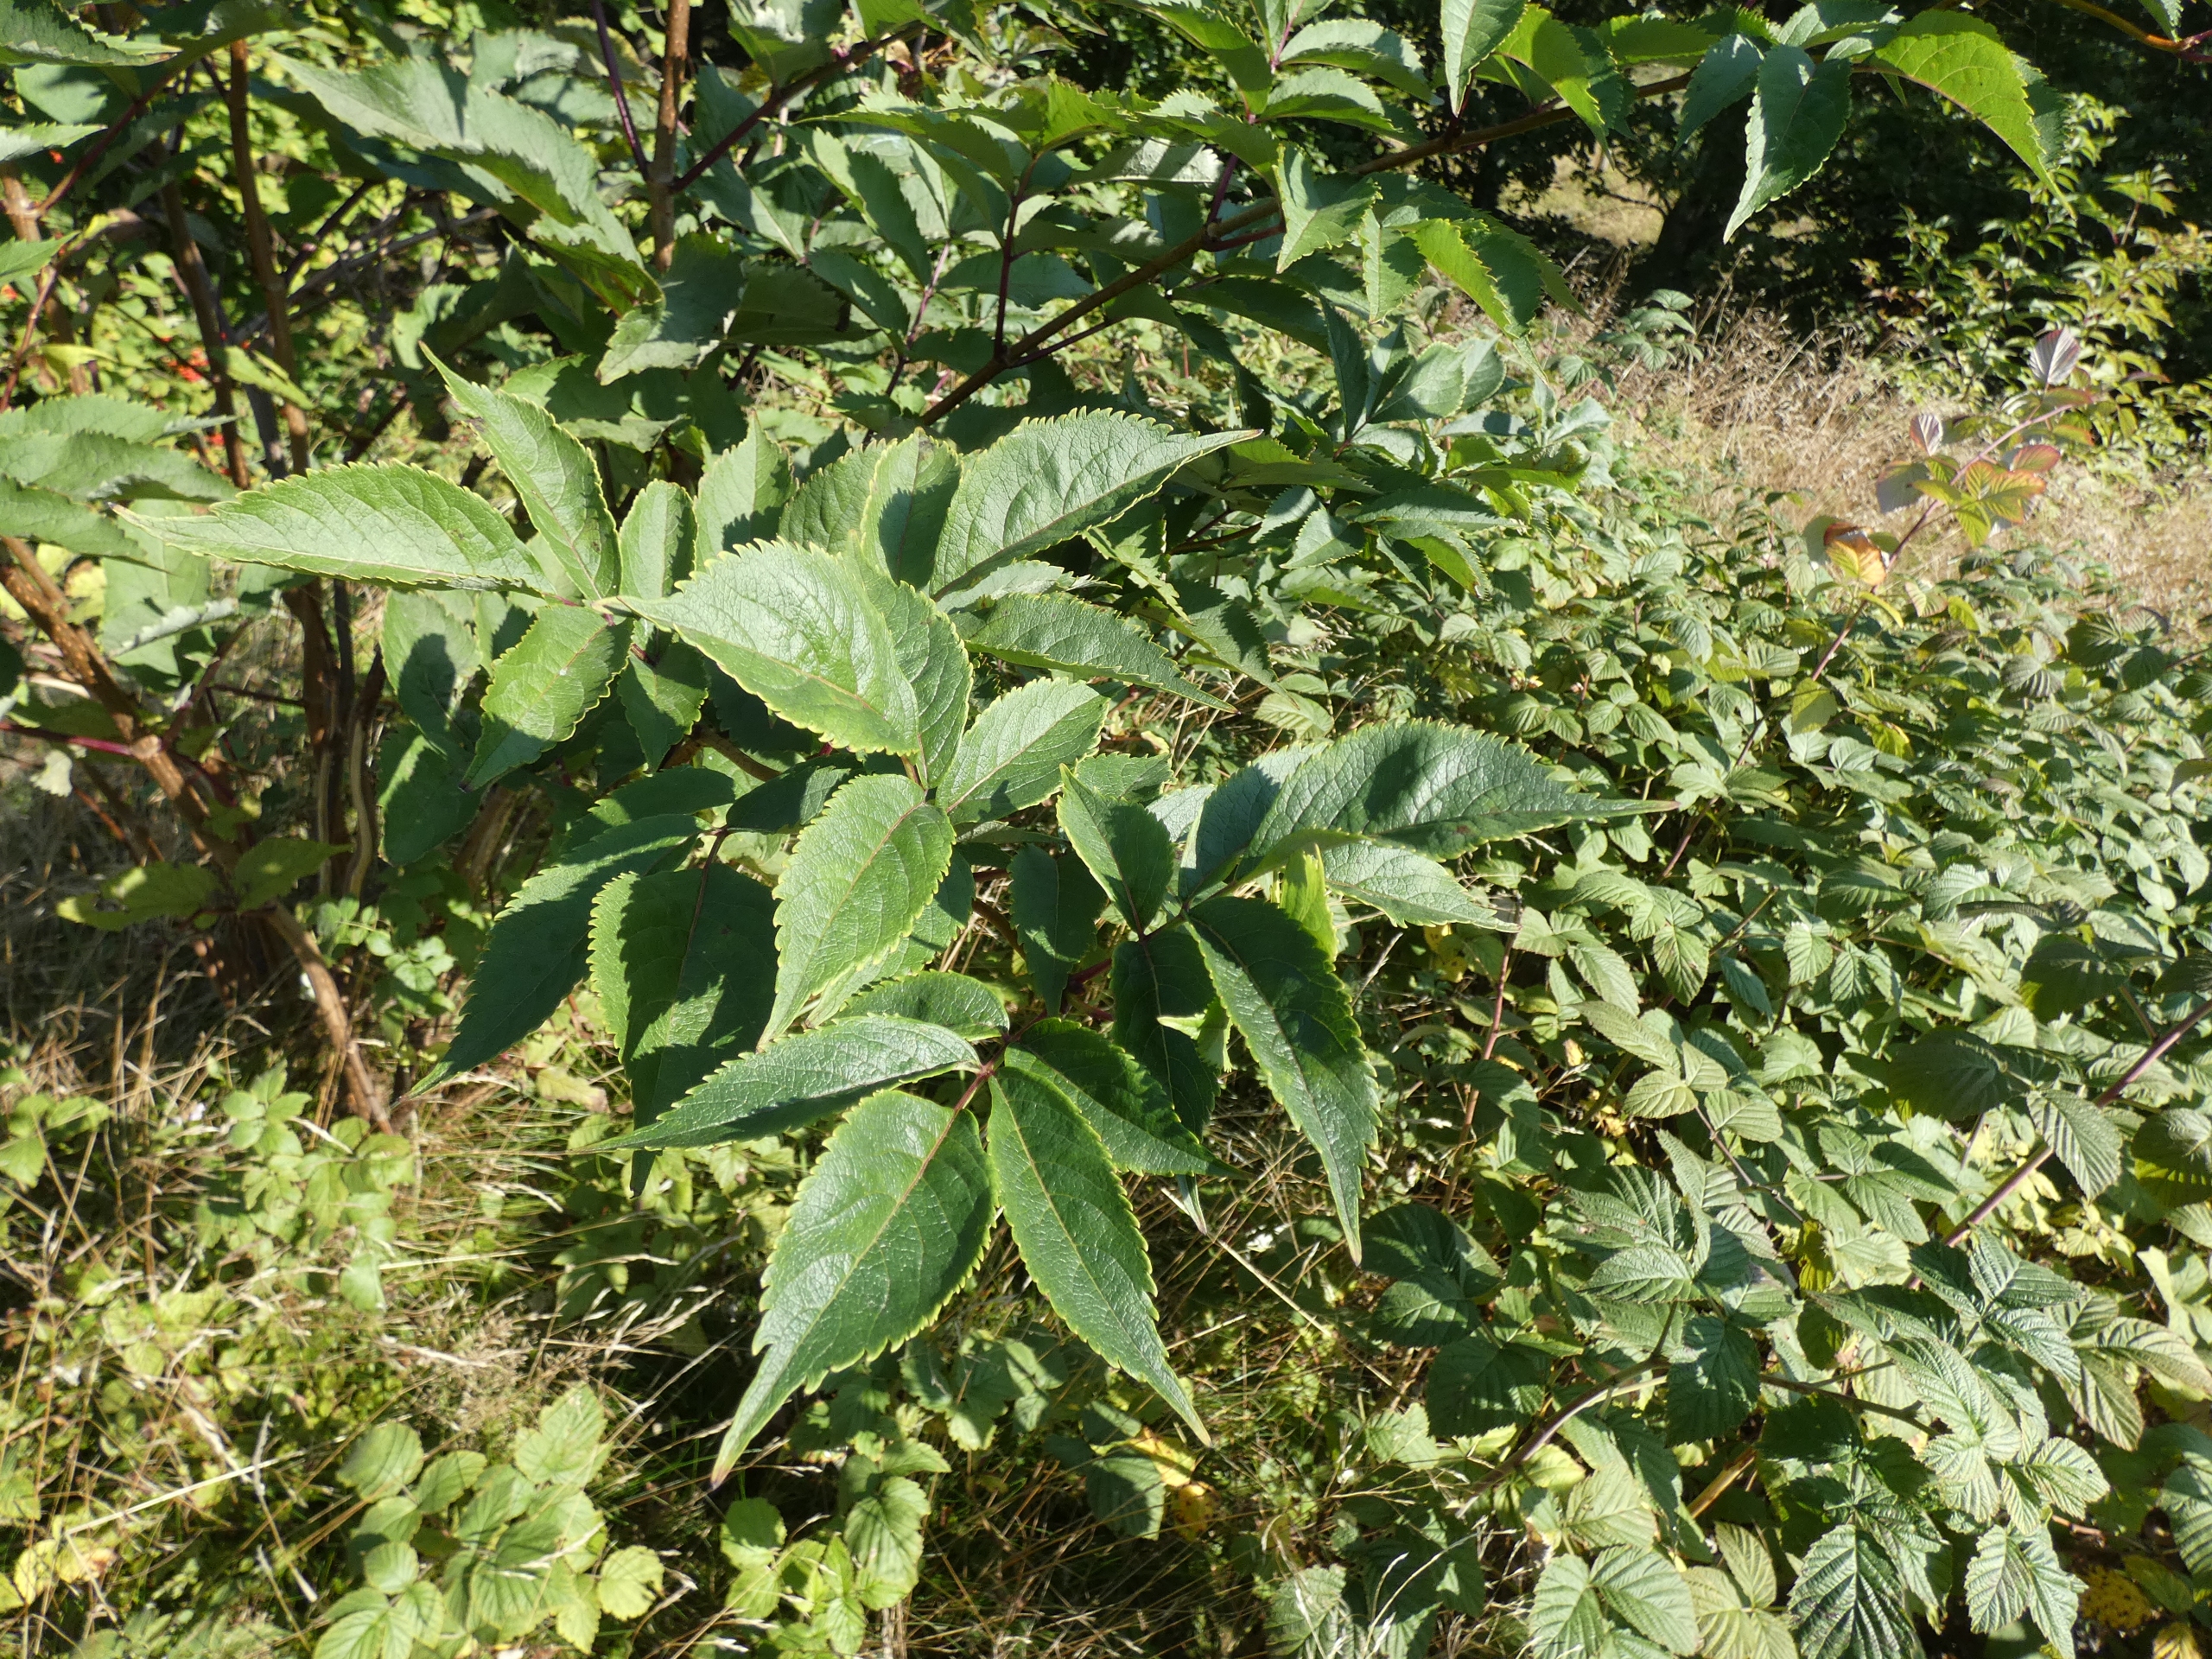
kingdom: Plantae
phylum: Tracheophyta
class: Magnoliopsida
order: Dipsacales
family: Viburnaceae
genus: Sambucus
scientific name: Sambucus racemosa
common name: Drue-hyld
